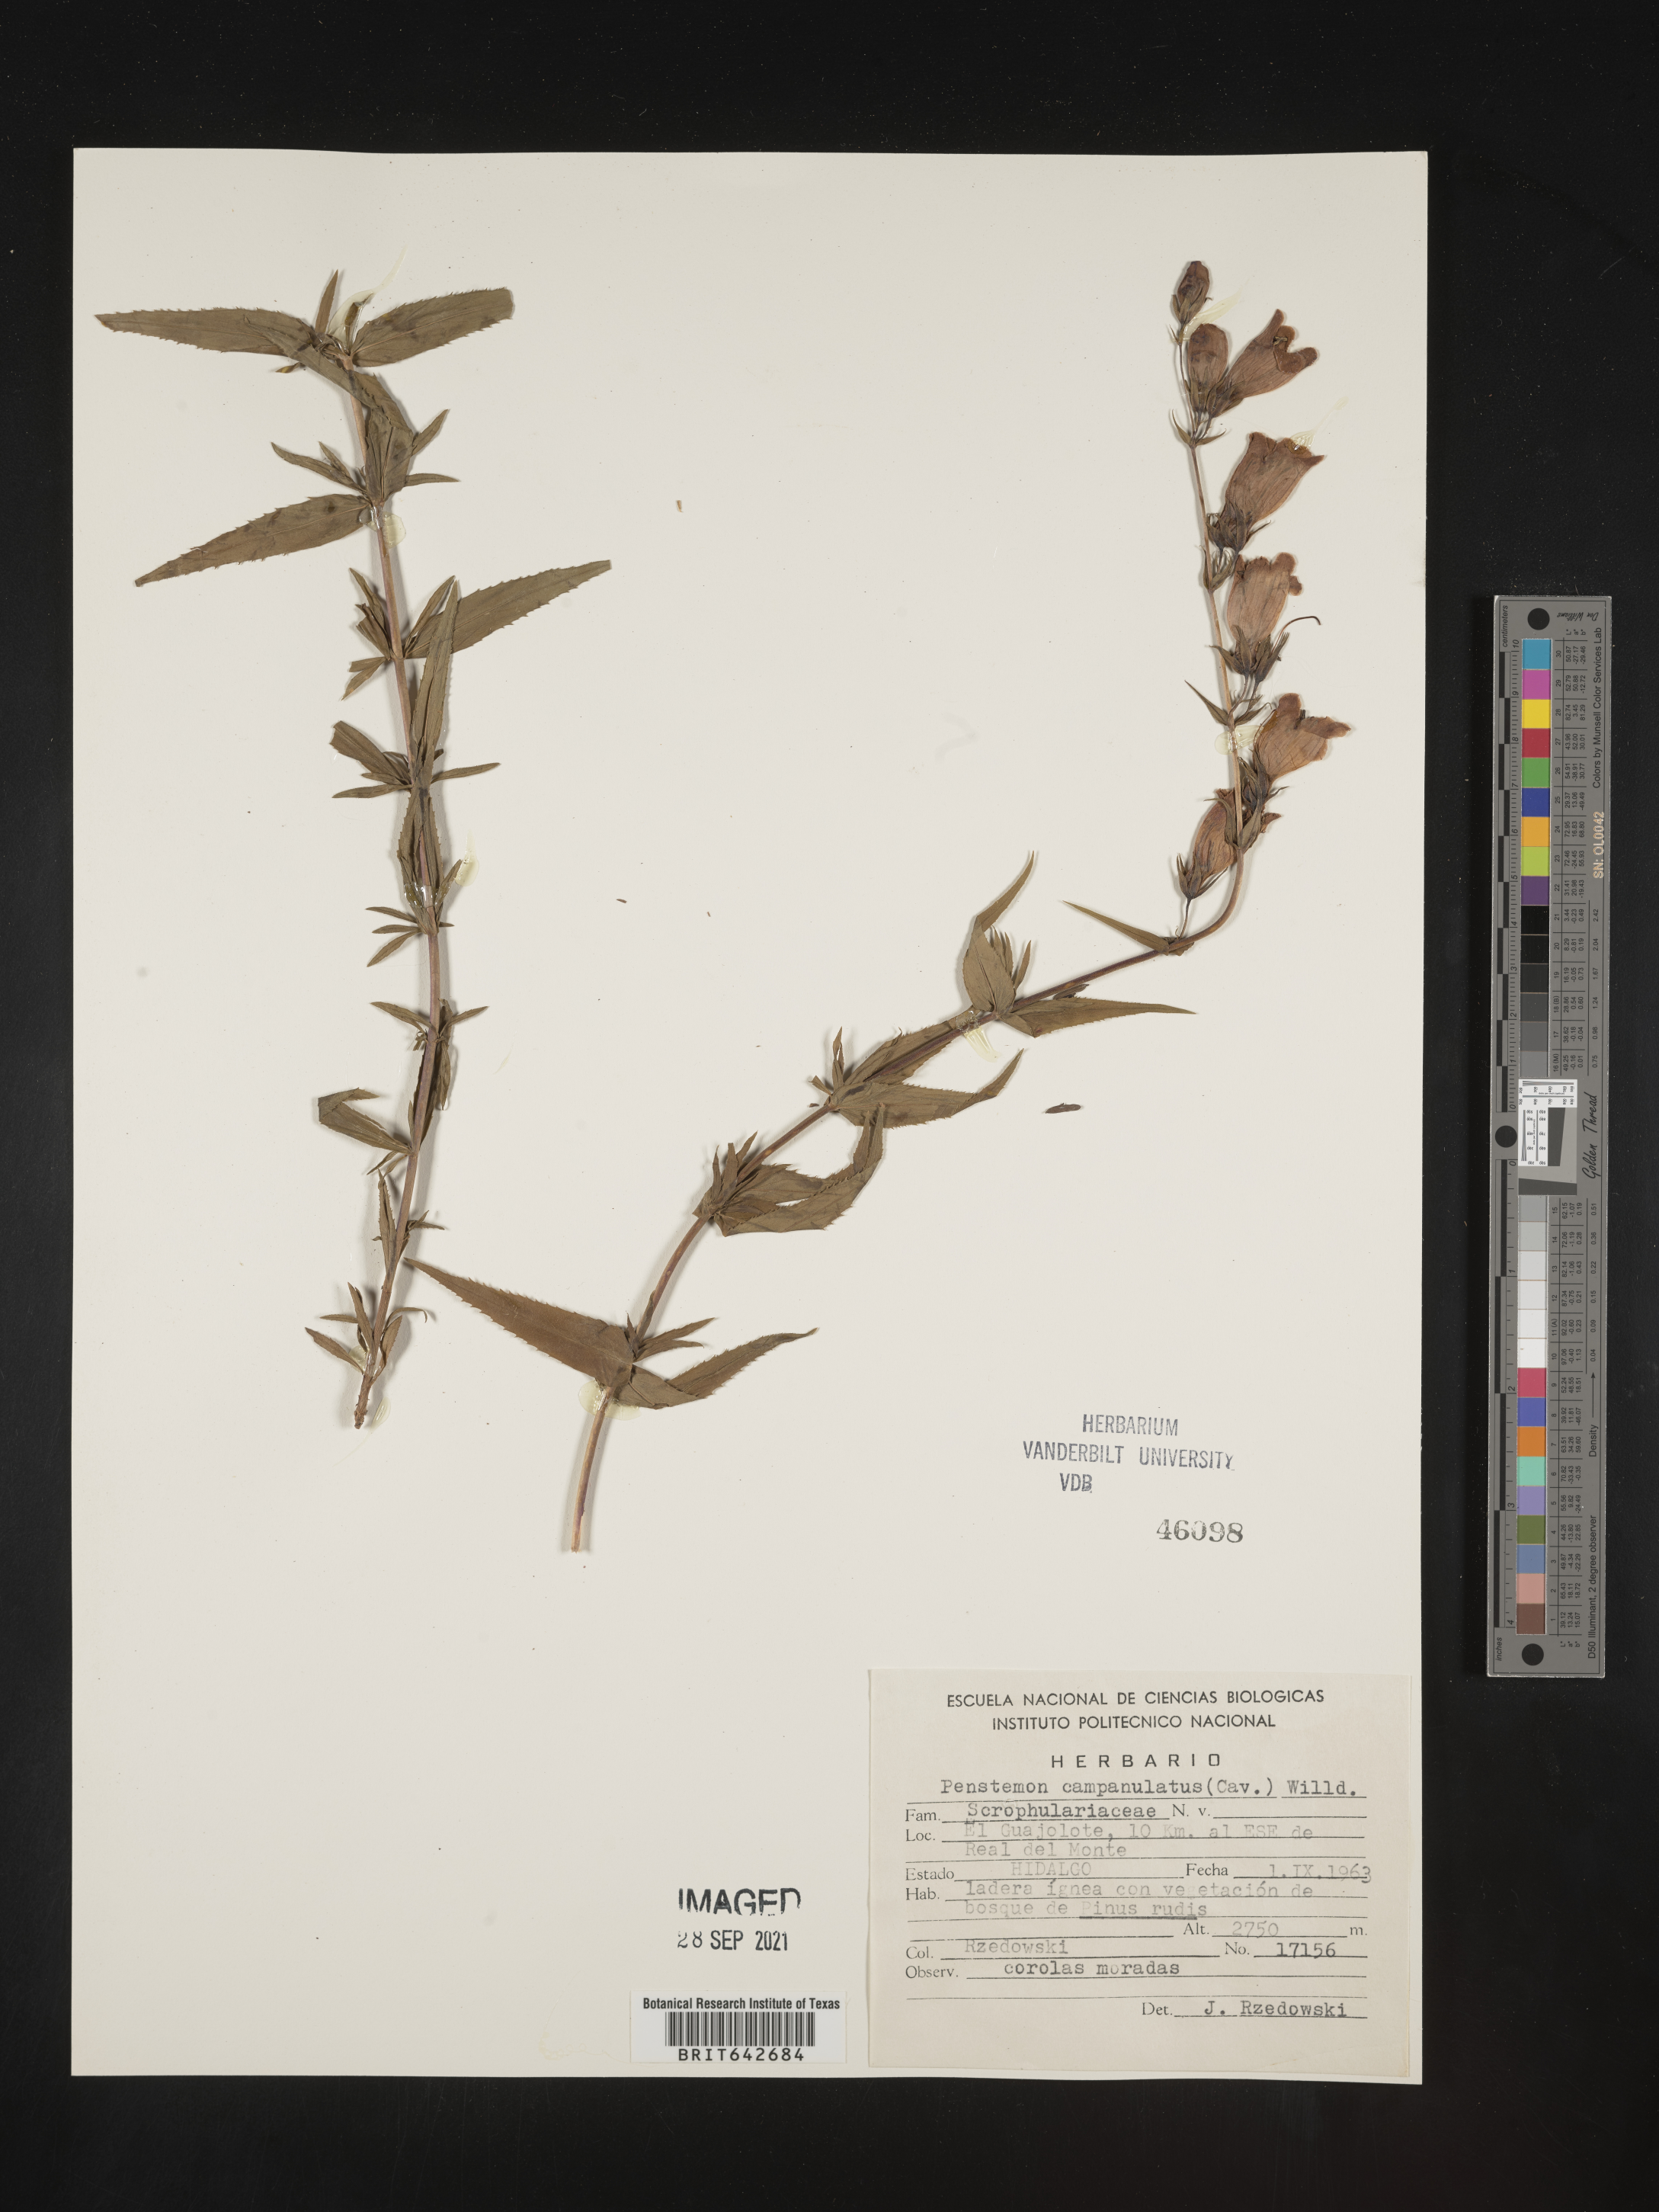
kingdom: Plantae
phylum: Tracheophyta
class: Magnoliopsida
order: Lamiales
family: Plantaginaceae
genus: Penstemon
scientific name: Penstemon
